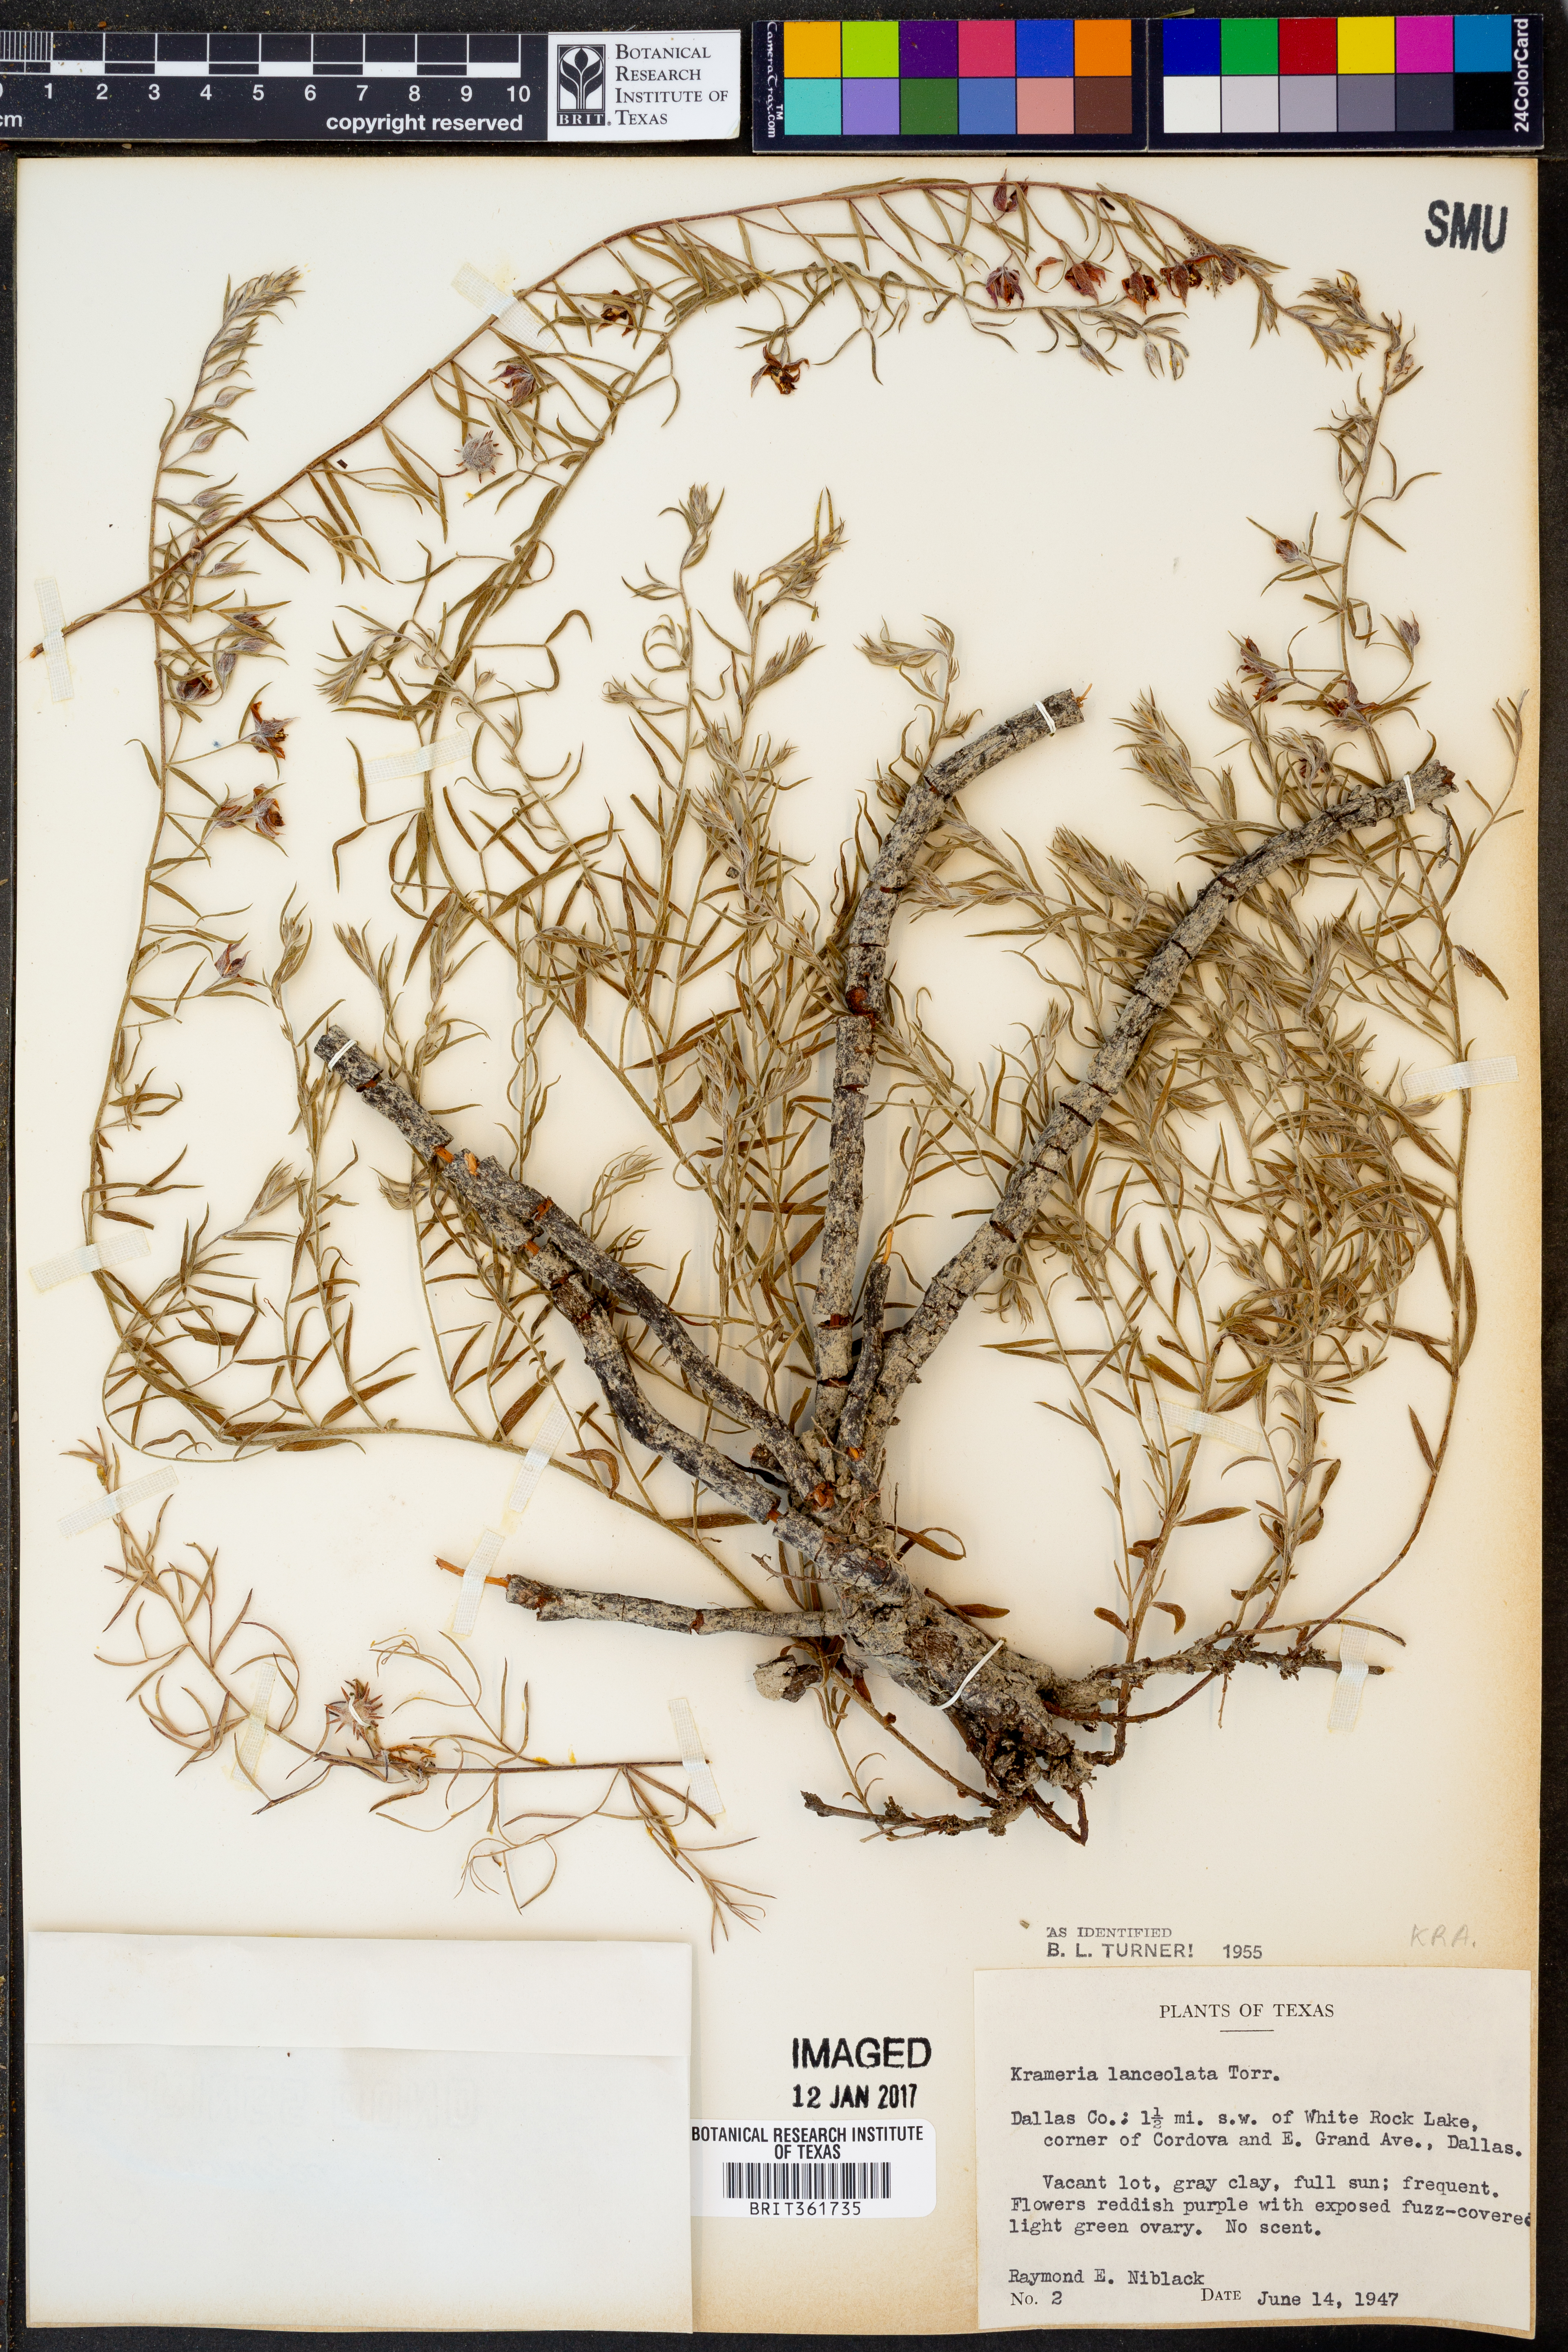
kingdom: Plantae
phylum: Tracheophyta
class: Magnoliopsida
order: Zygophyllales
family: Krameriaceae
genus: Krameria
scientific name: Krameria lanceolata
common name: Ratany
